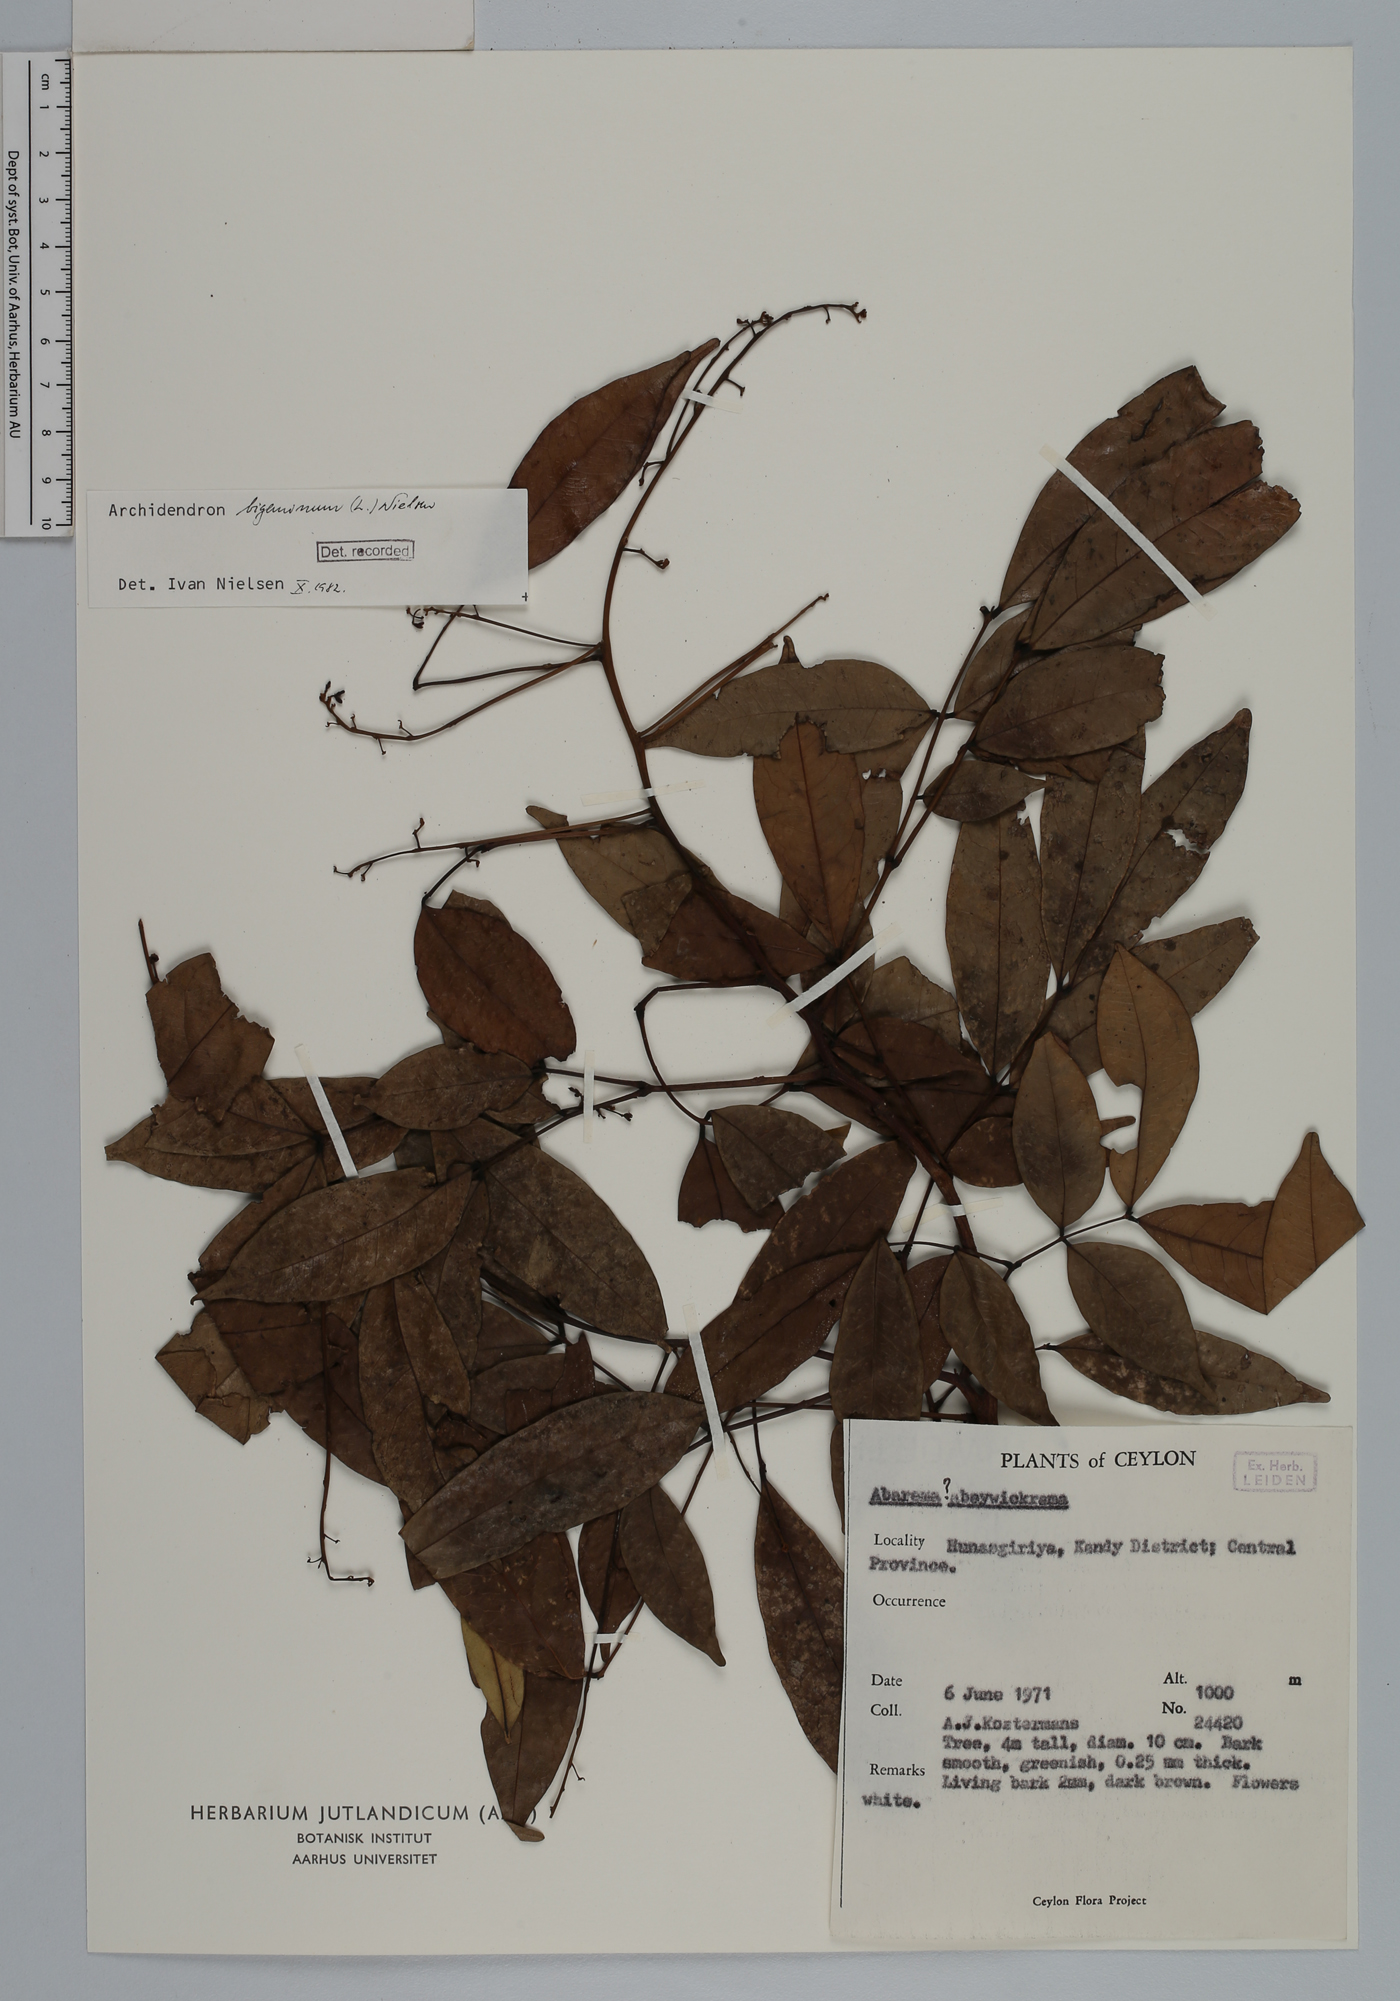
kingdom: Plantae
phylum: Tracheophyta
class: Magnoliopsida
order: Fabales
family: Fabaceae
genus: Archidendron
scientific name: Archidendron bigeminum
